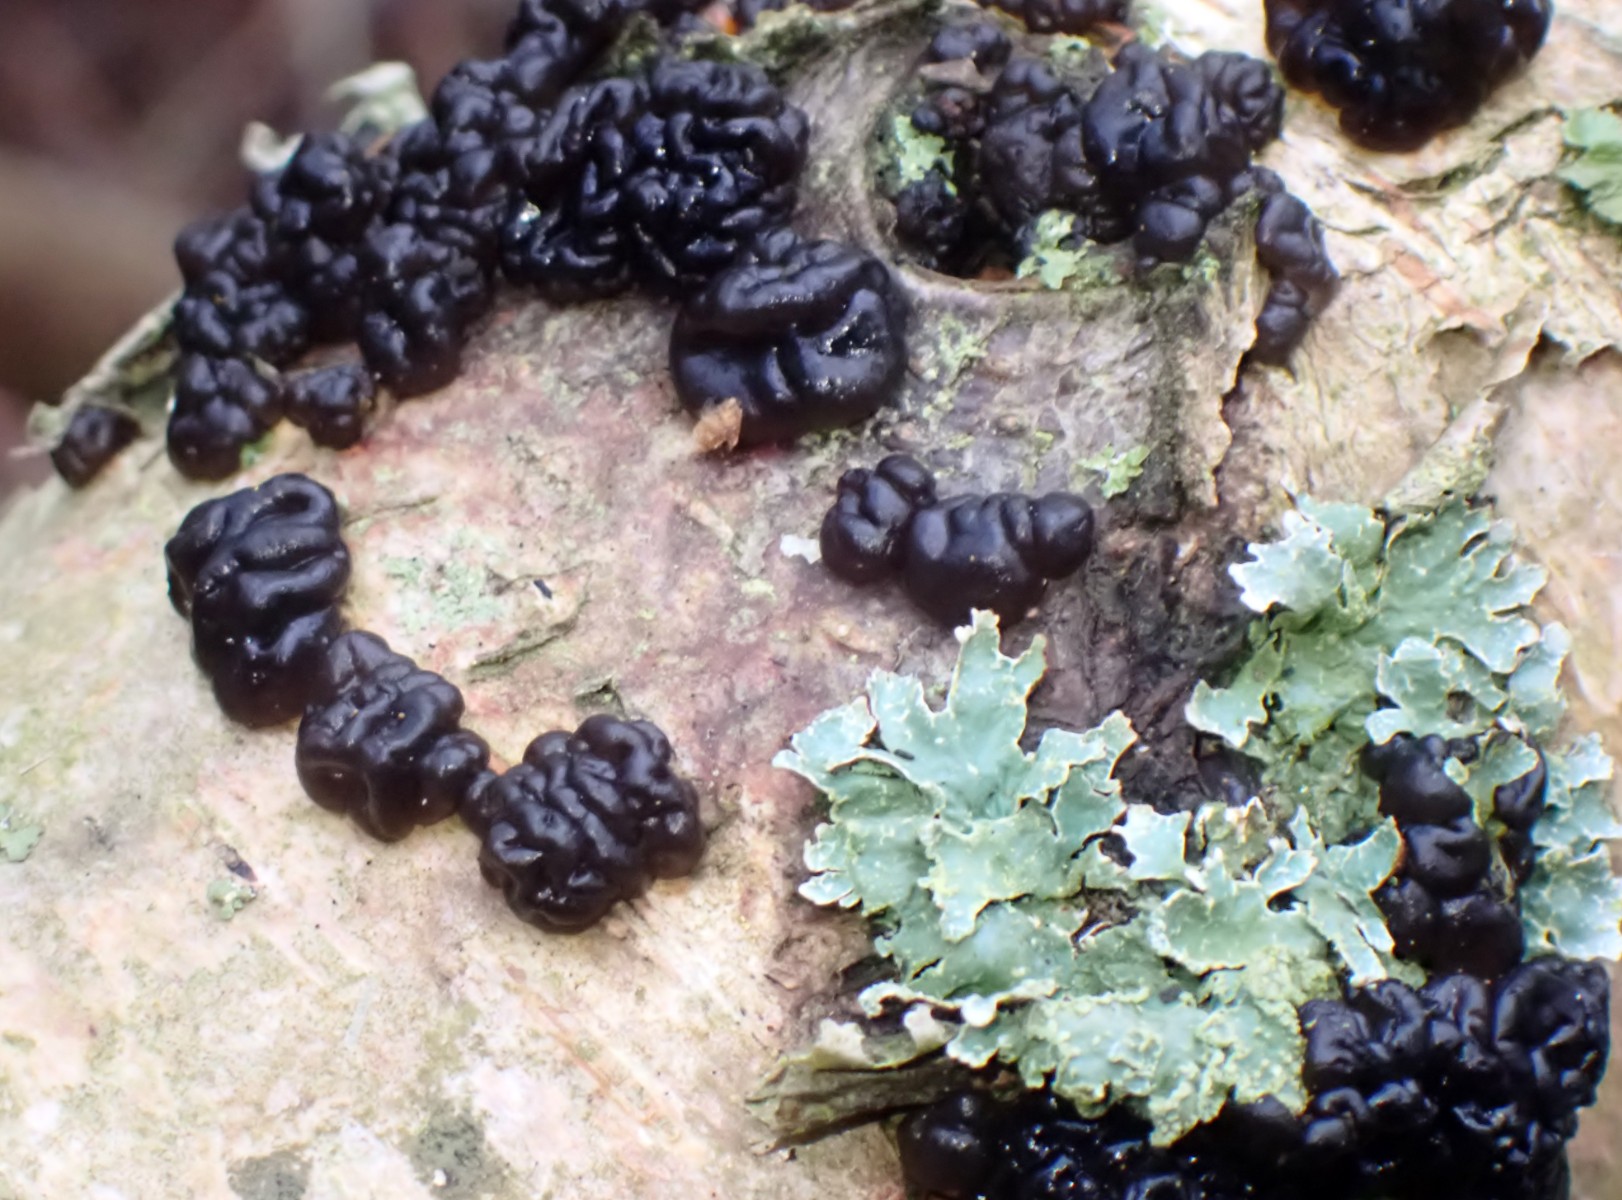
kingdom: Fungi
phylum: Basidiomycota
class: Agaricomycetes
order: Auriculariales
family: Auriculariaceae
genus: Exidia
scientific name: Exidia nigricans
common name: almindelig bævretop
